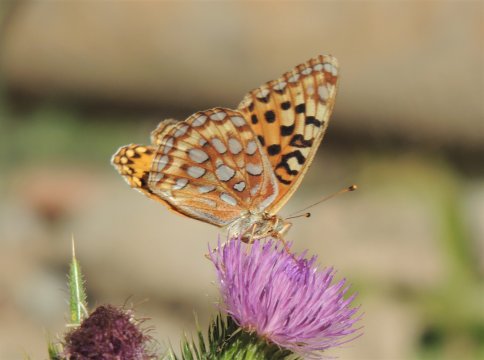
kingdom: Animalia
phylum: Arthropoda
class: Insecta
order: Lepidoptera
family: Nymphalidae
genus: Speyeria
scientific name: Speyeria coronis
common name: Coronis Fritillary
